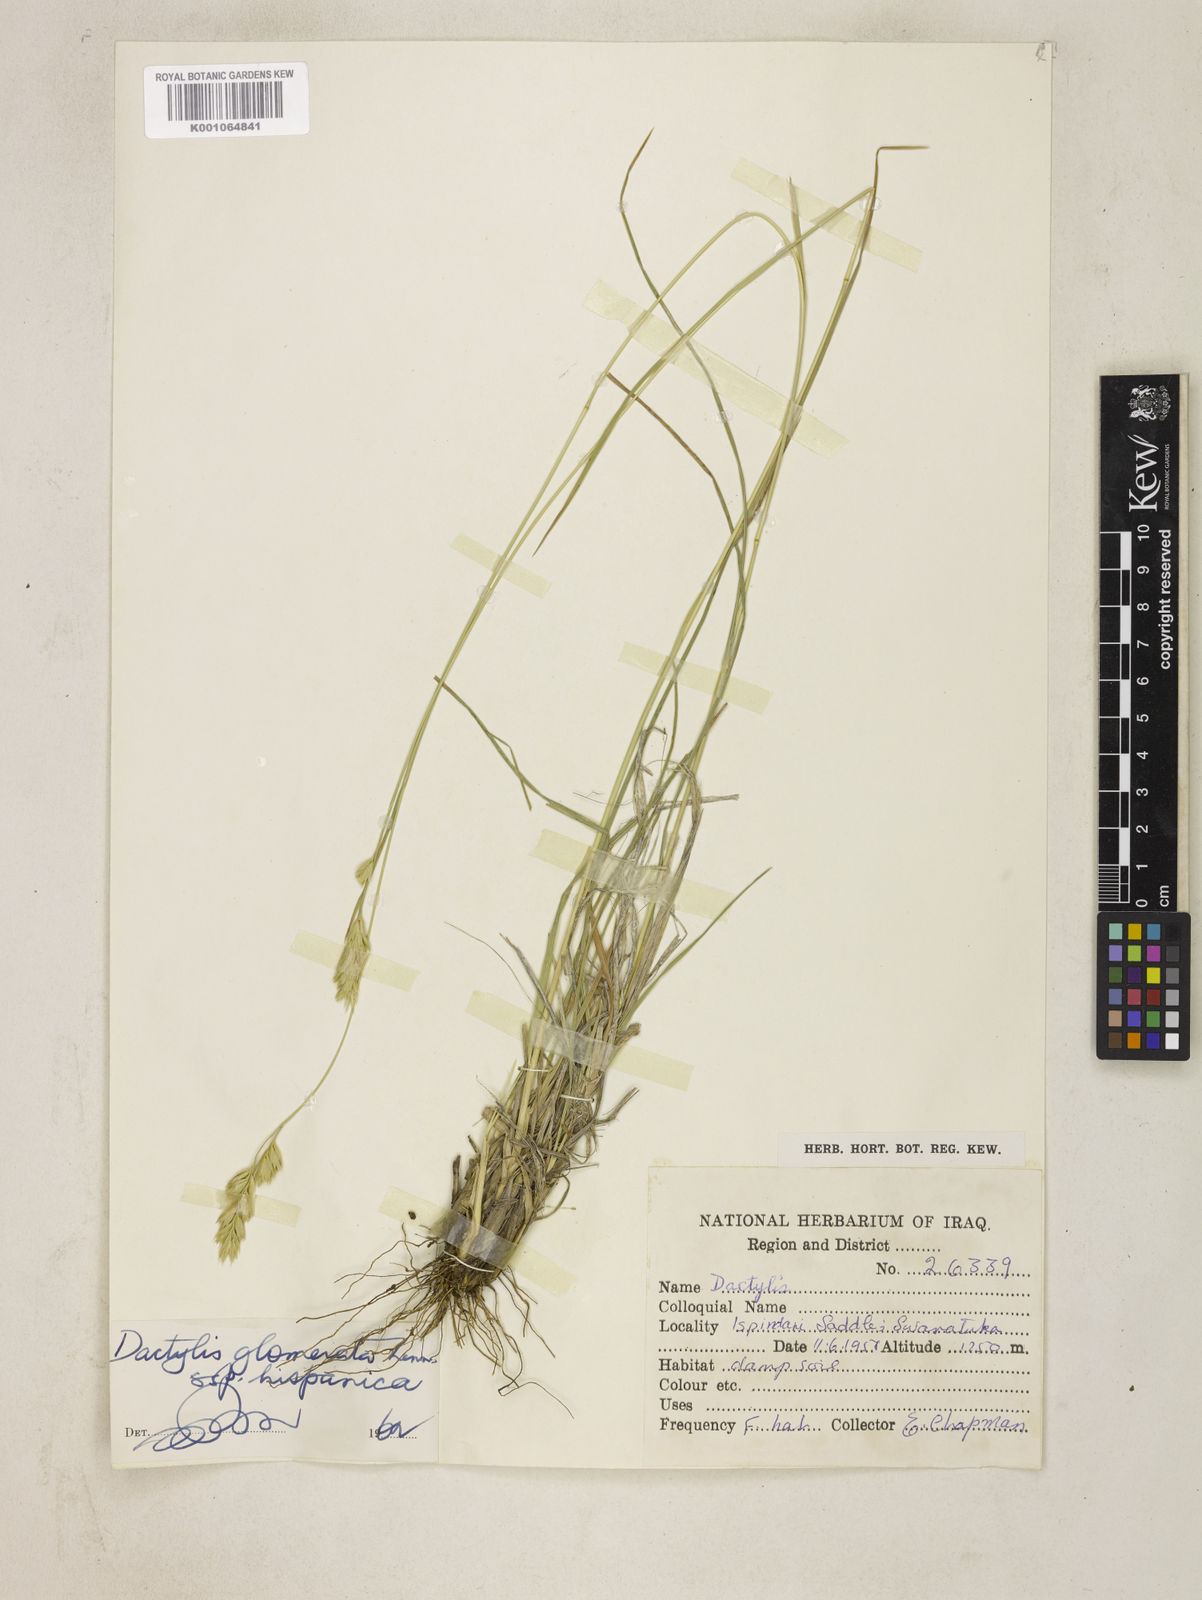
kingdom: Plantae
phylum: Tracheophyta
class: Liliopsida
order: Poales
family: Poaceae
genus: Dactylis
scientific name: Dactylis glomerata
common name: Orchardgrass
